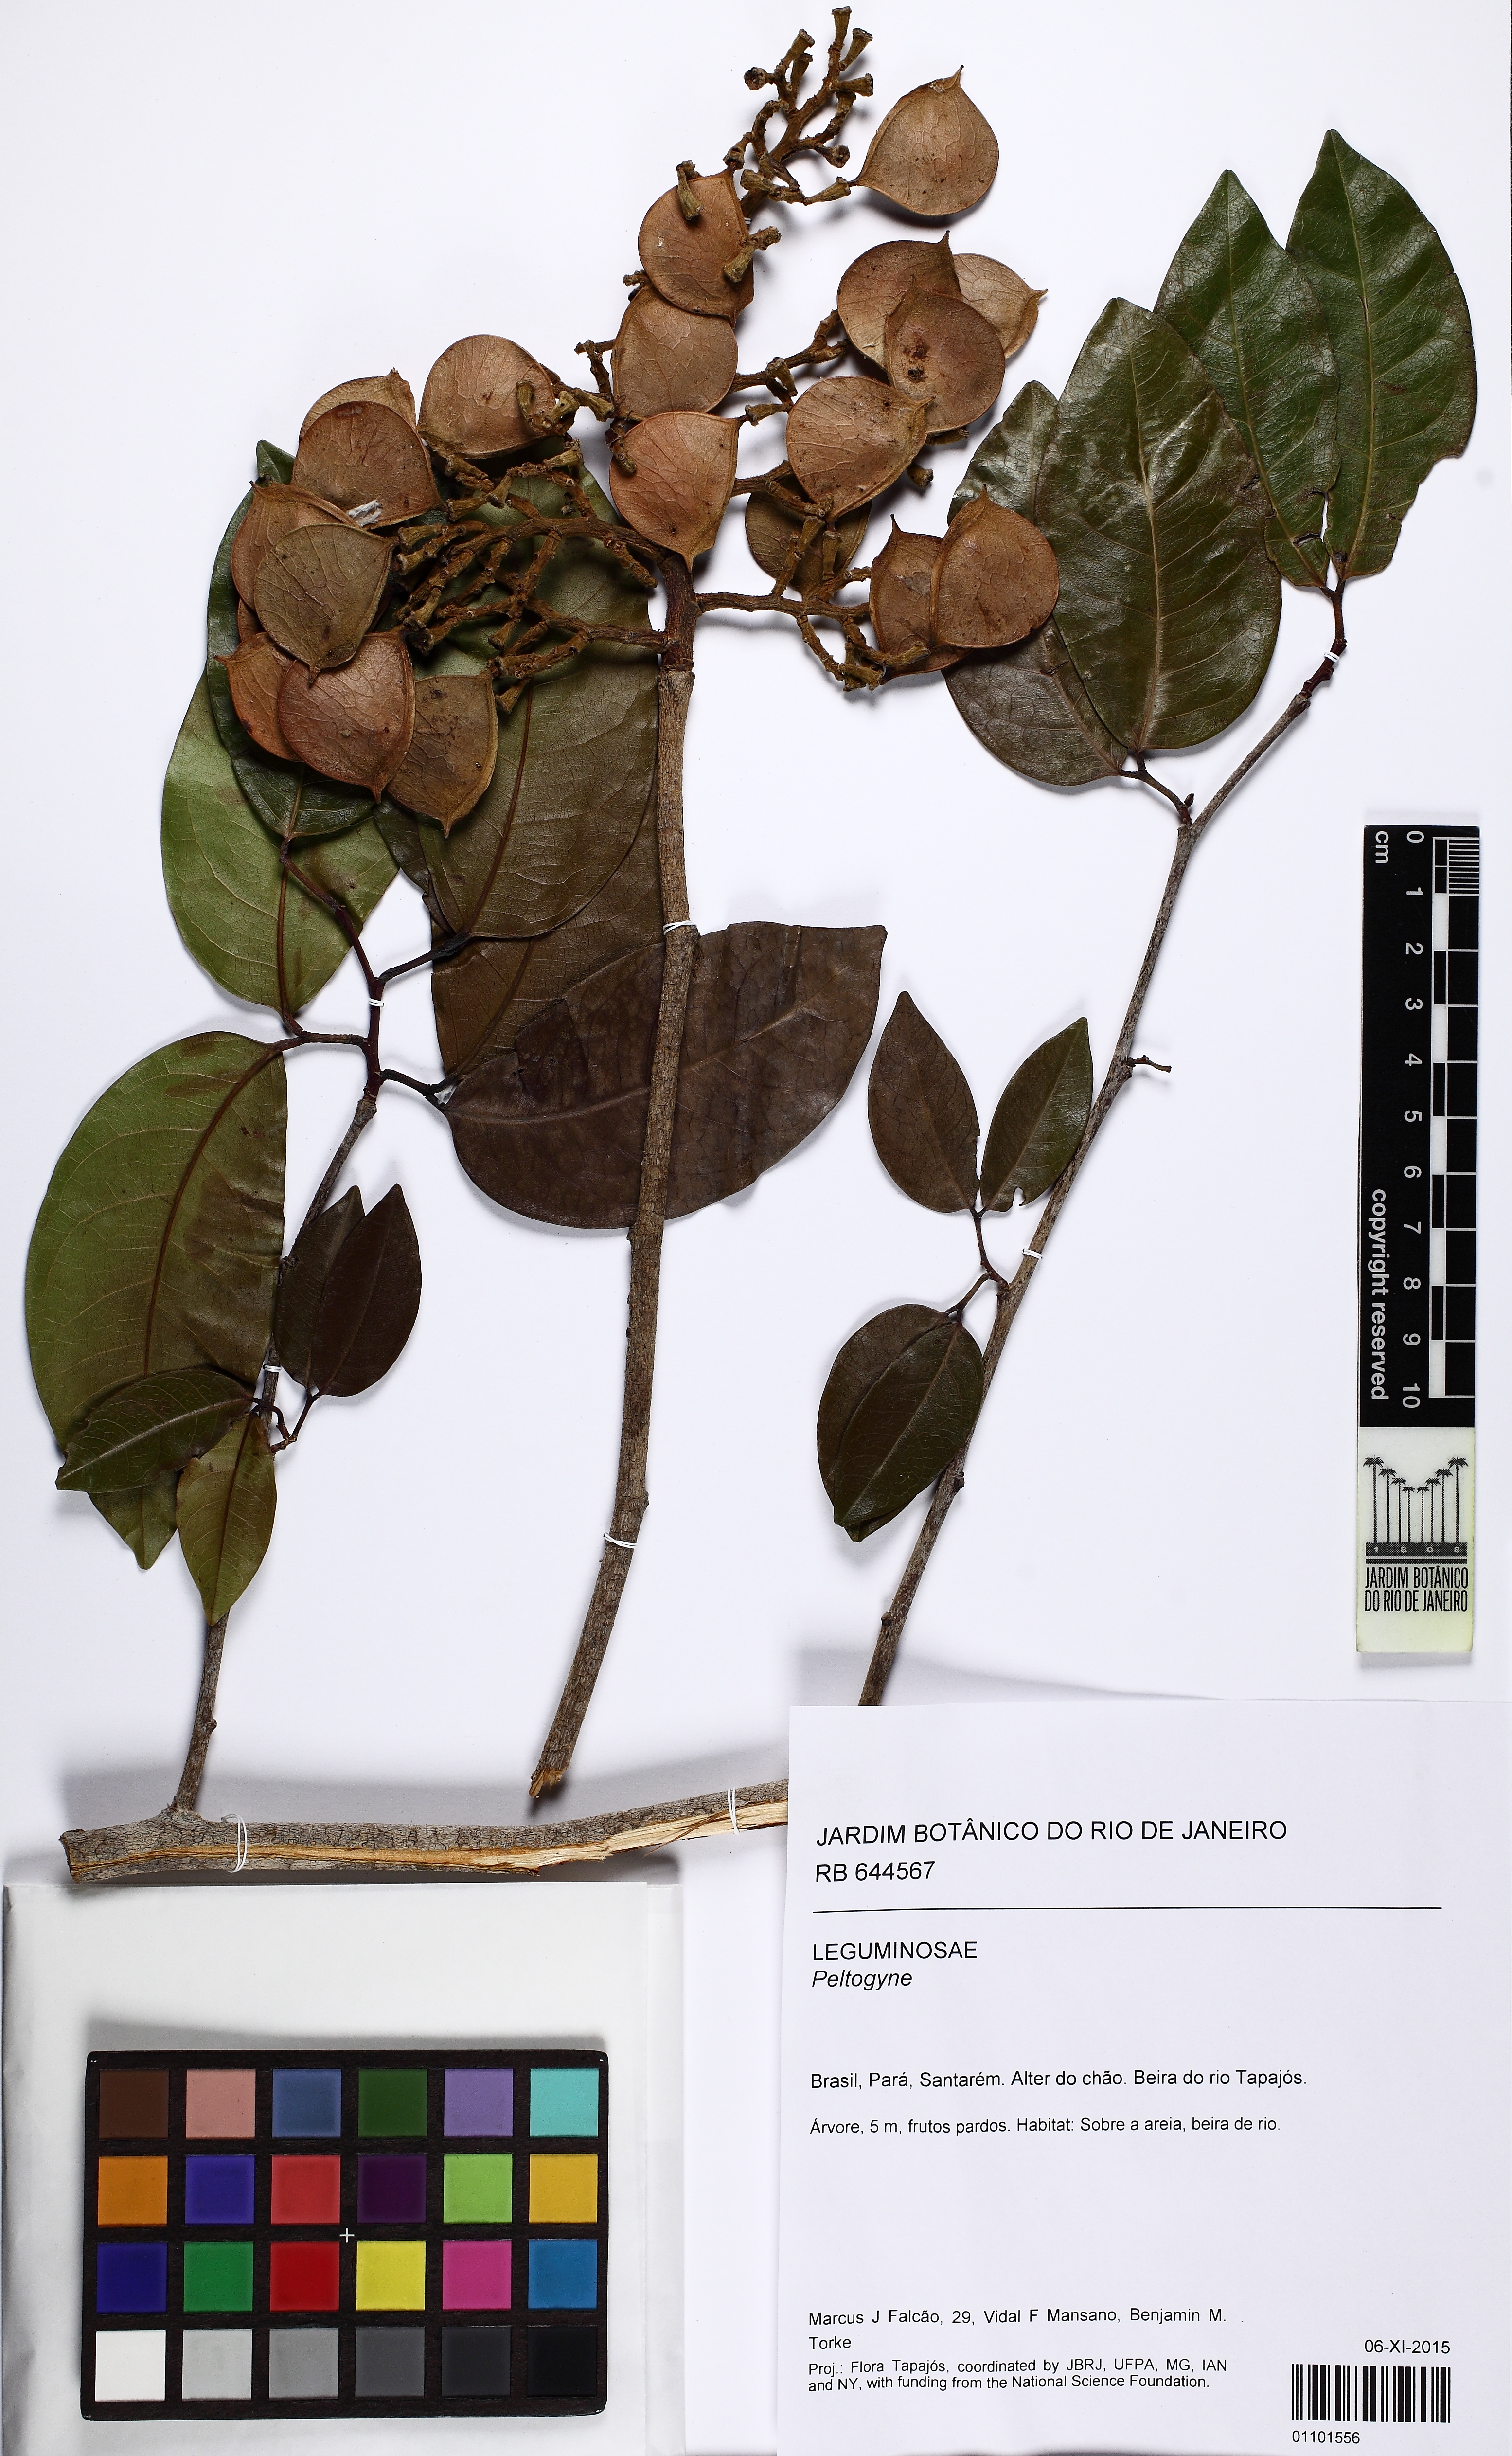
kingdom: Plantae
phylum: Tracheophyta
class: Magnoliopsida
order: Fabales
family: Fabaceae
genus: Peltogyne
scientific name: Peltogyne venosa
